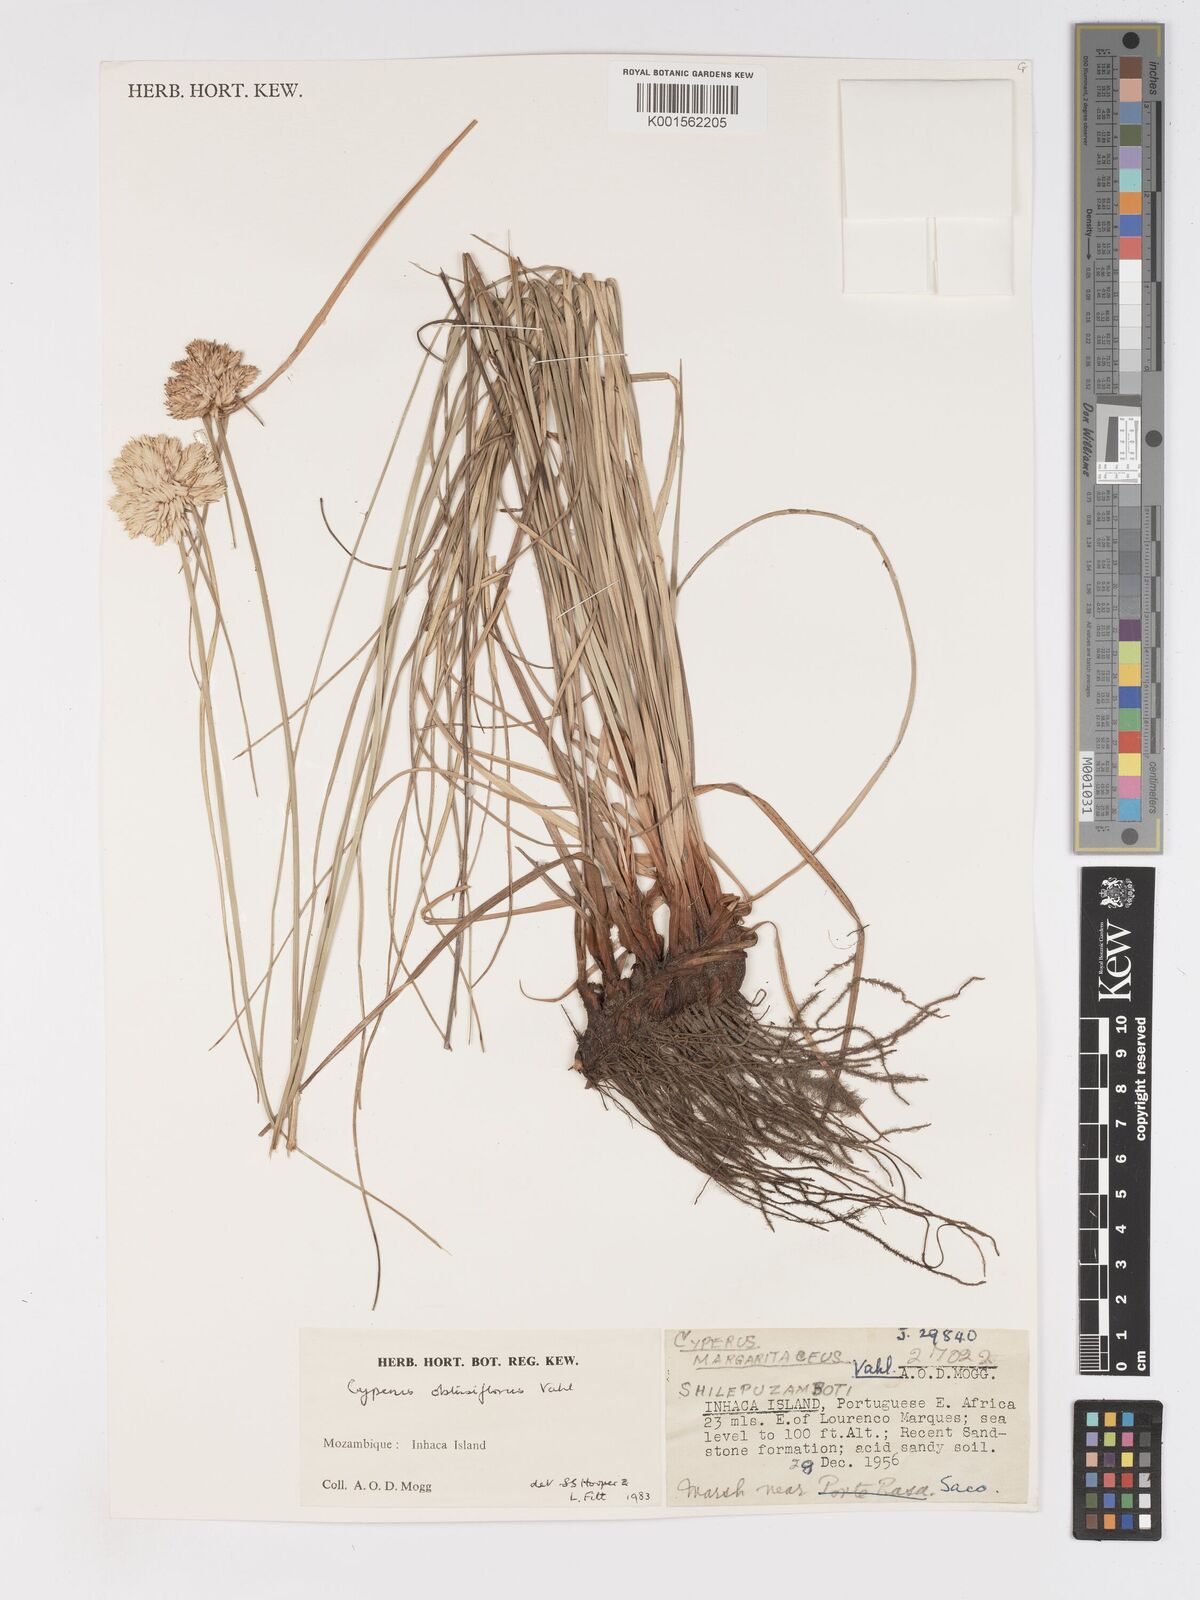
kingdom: Plantae
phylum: Tracheophyta
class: Liliopsida
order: Poales
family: Cyperaceae
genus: Cyperus
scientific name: Cyperus niveus
